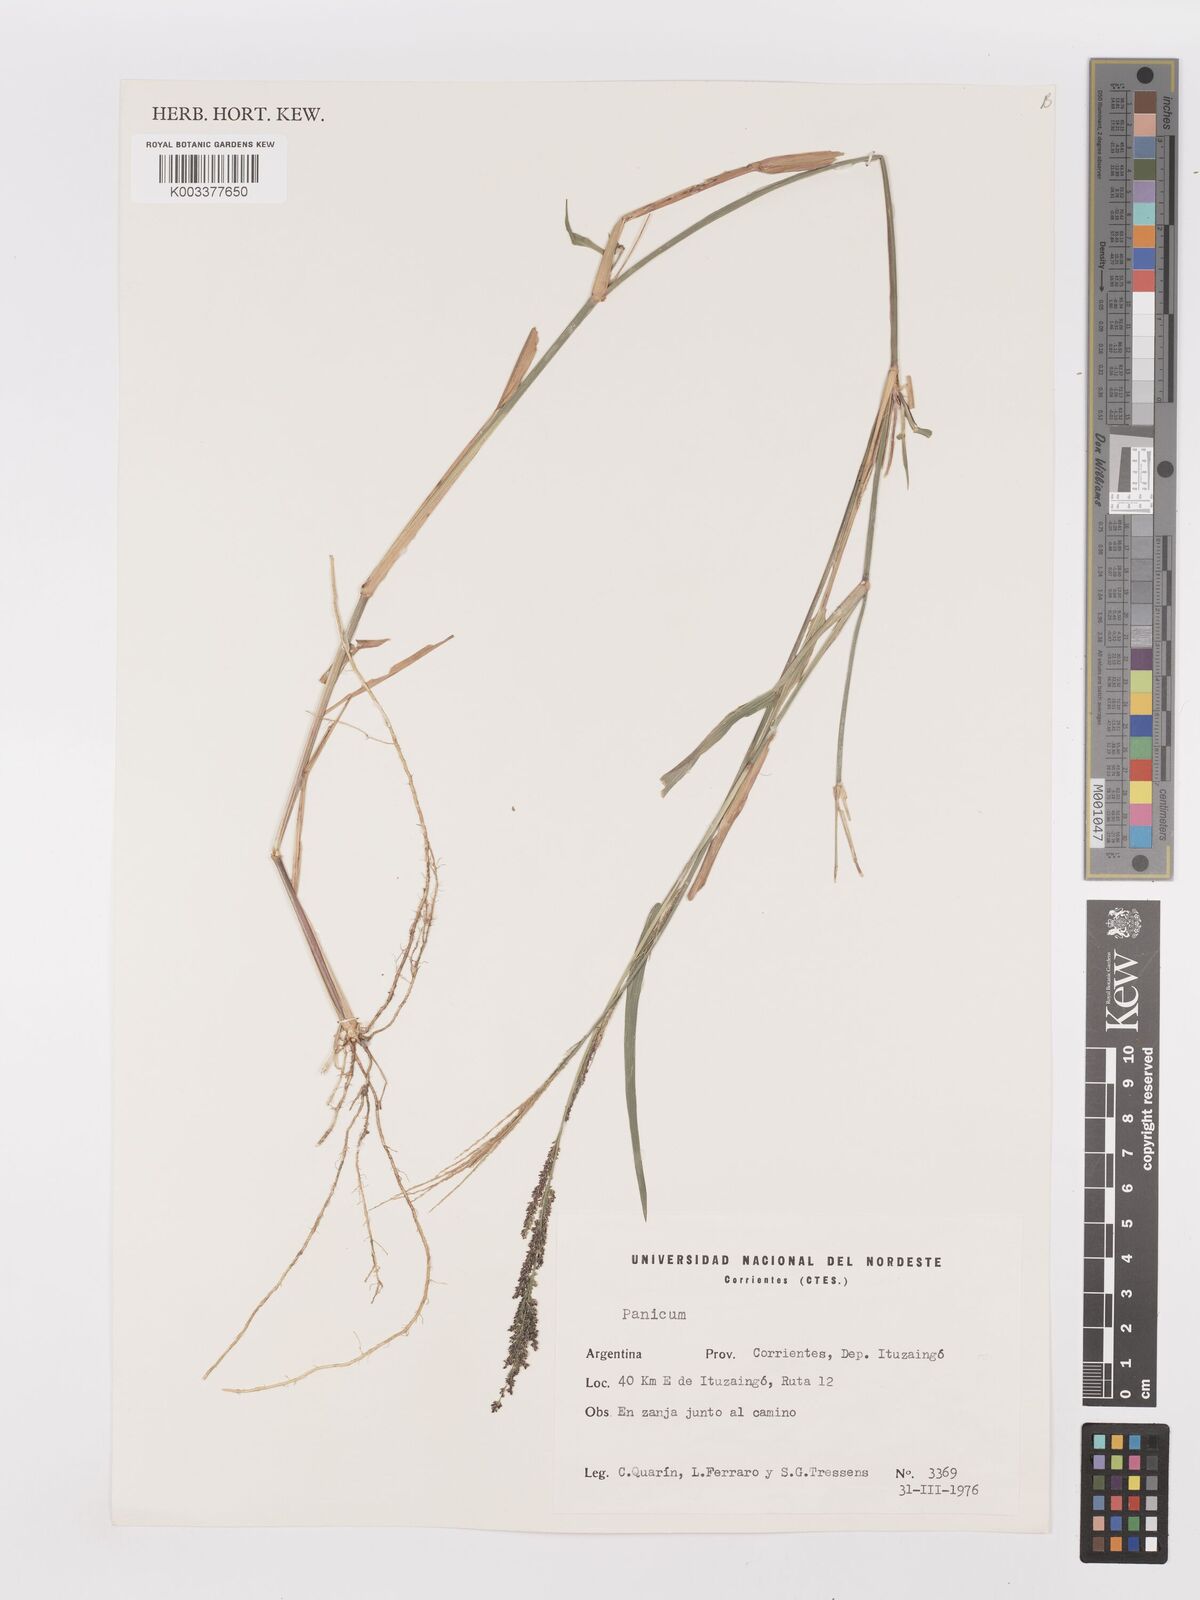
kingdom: Plantae
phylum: Tracheophyta
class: Liliopsida
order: Poales
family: Poaceae
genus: Steinchisma
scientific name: Steinchisma laxum
